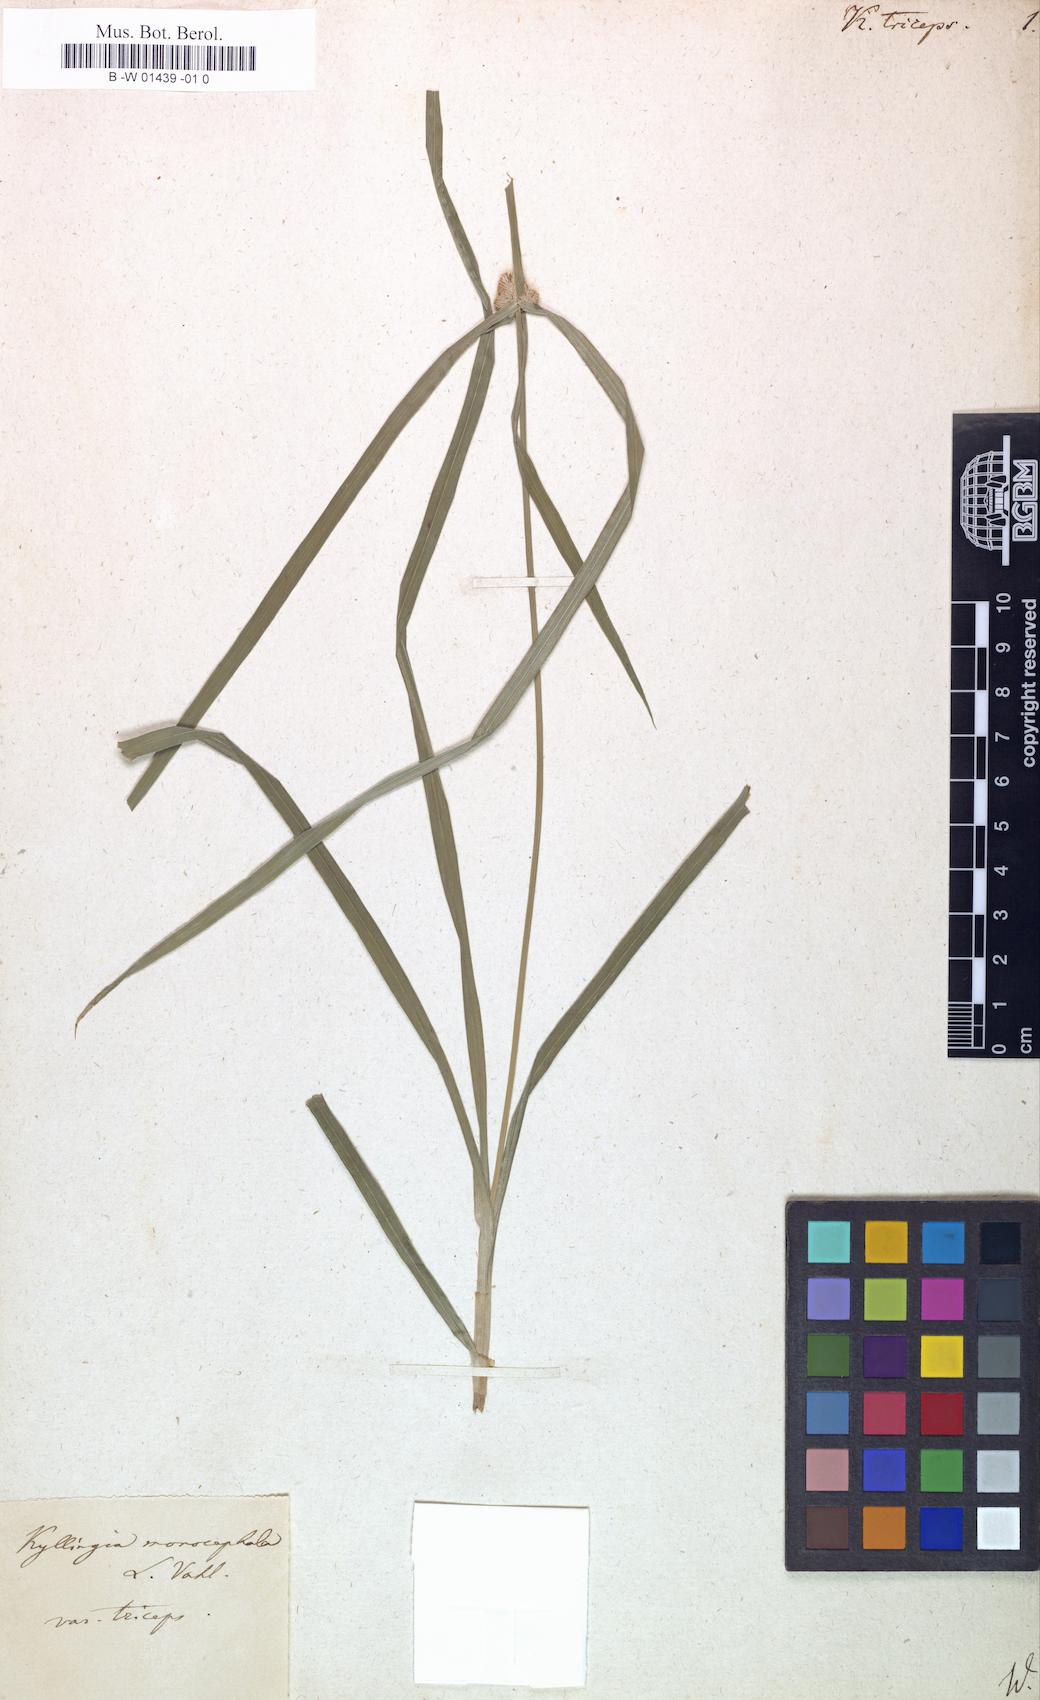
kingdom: Plantae
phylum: Tracheophyta
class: Liliopsida
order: Poales
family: Cyperaceae
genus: Cyperus
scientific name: Cyperus Kyllinga triceps
